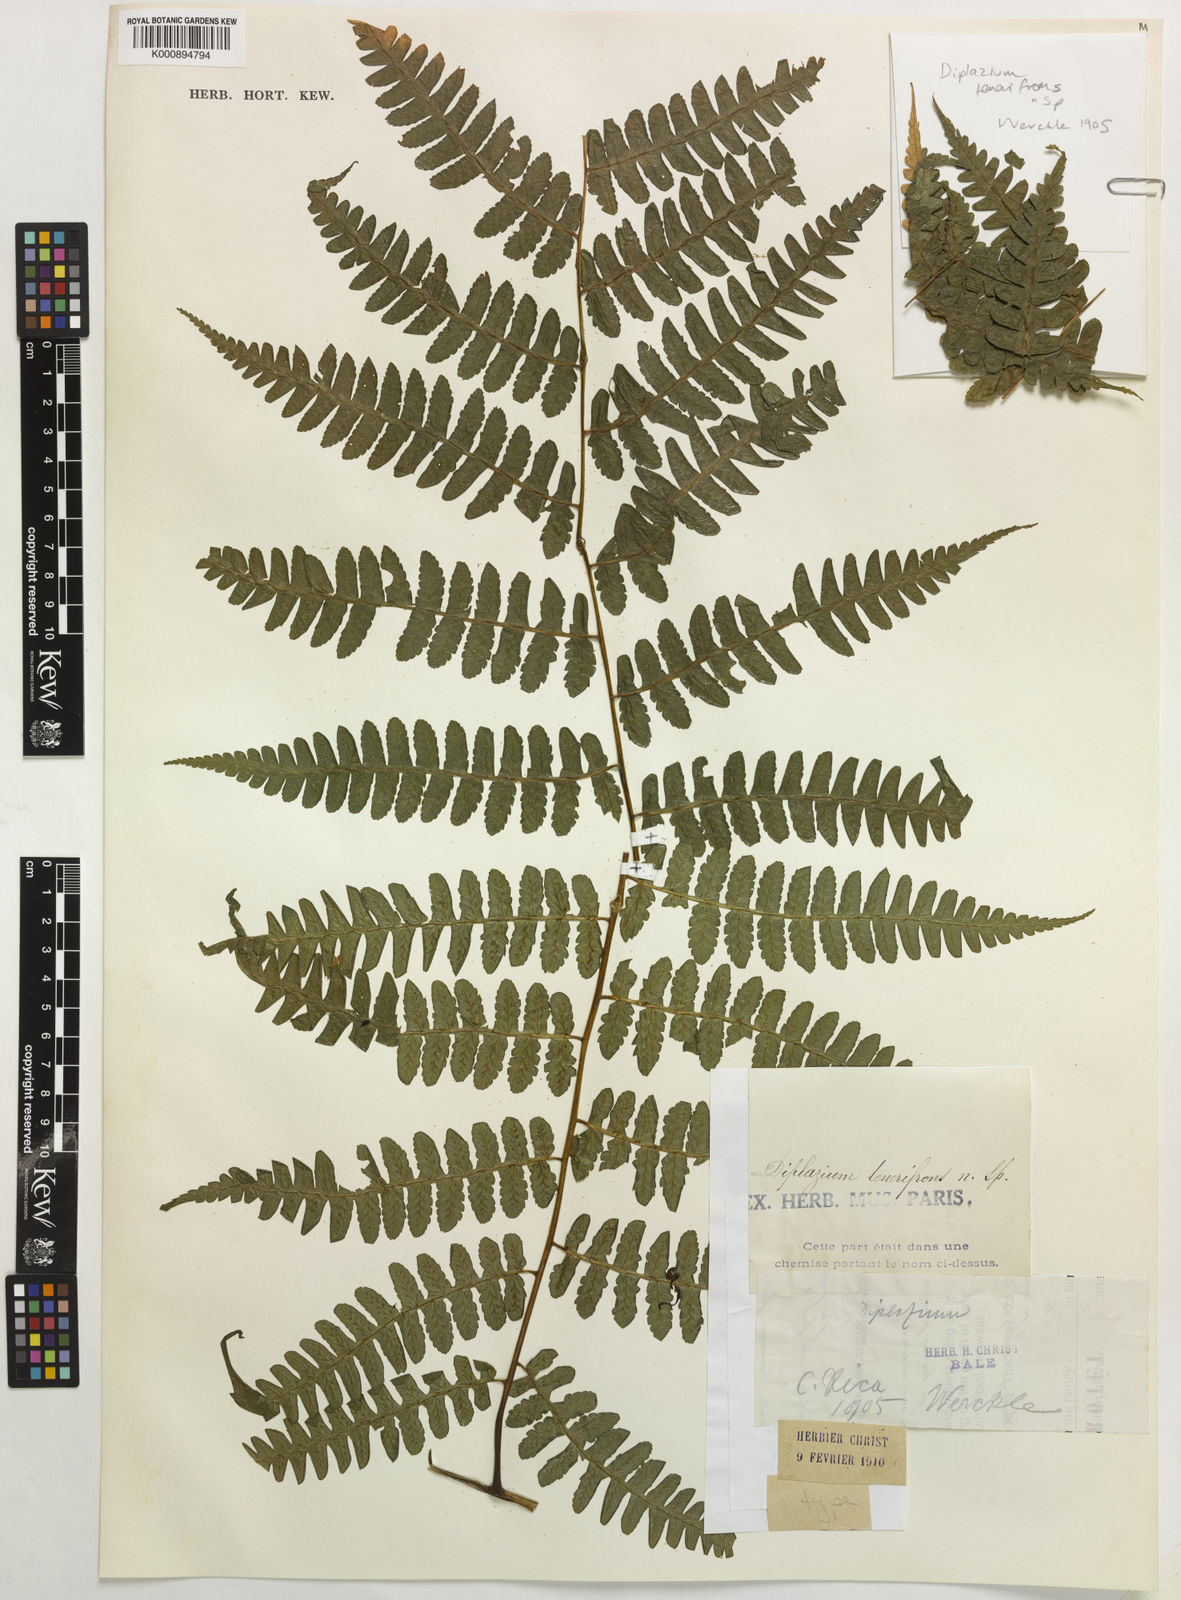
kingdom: Plantae
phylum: Tracheophyta
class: Polypodiopsida
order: Polypodiales
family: Athyriaceae
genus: Diplazium
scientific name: Diplazium expansum
